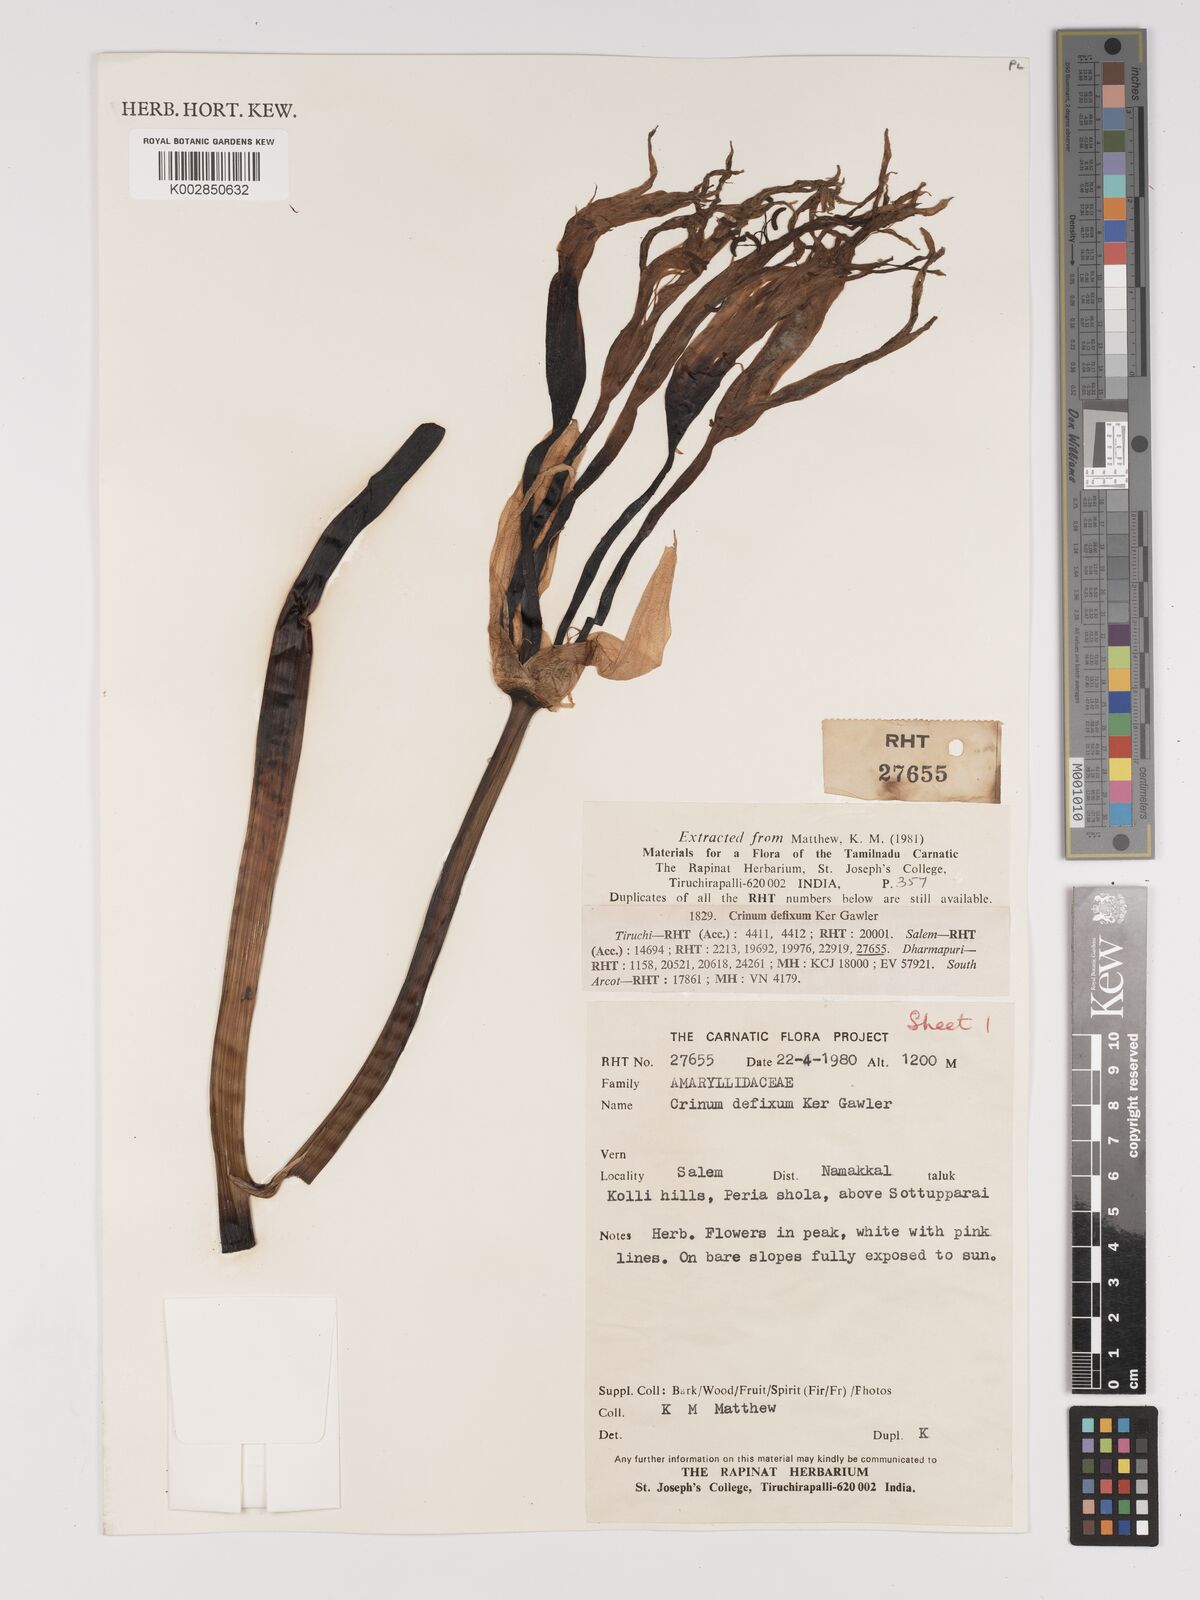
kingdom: Plantae
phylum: Tracheophyta
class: Liliopsida
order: Asparagales
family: Amaryllidaceae
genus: Crinum
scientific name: Crinum defixum
